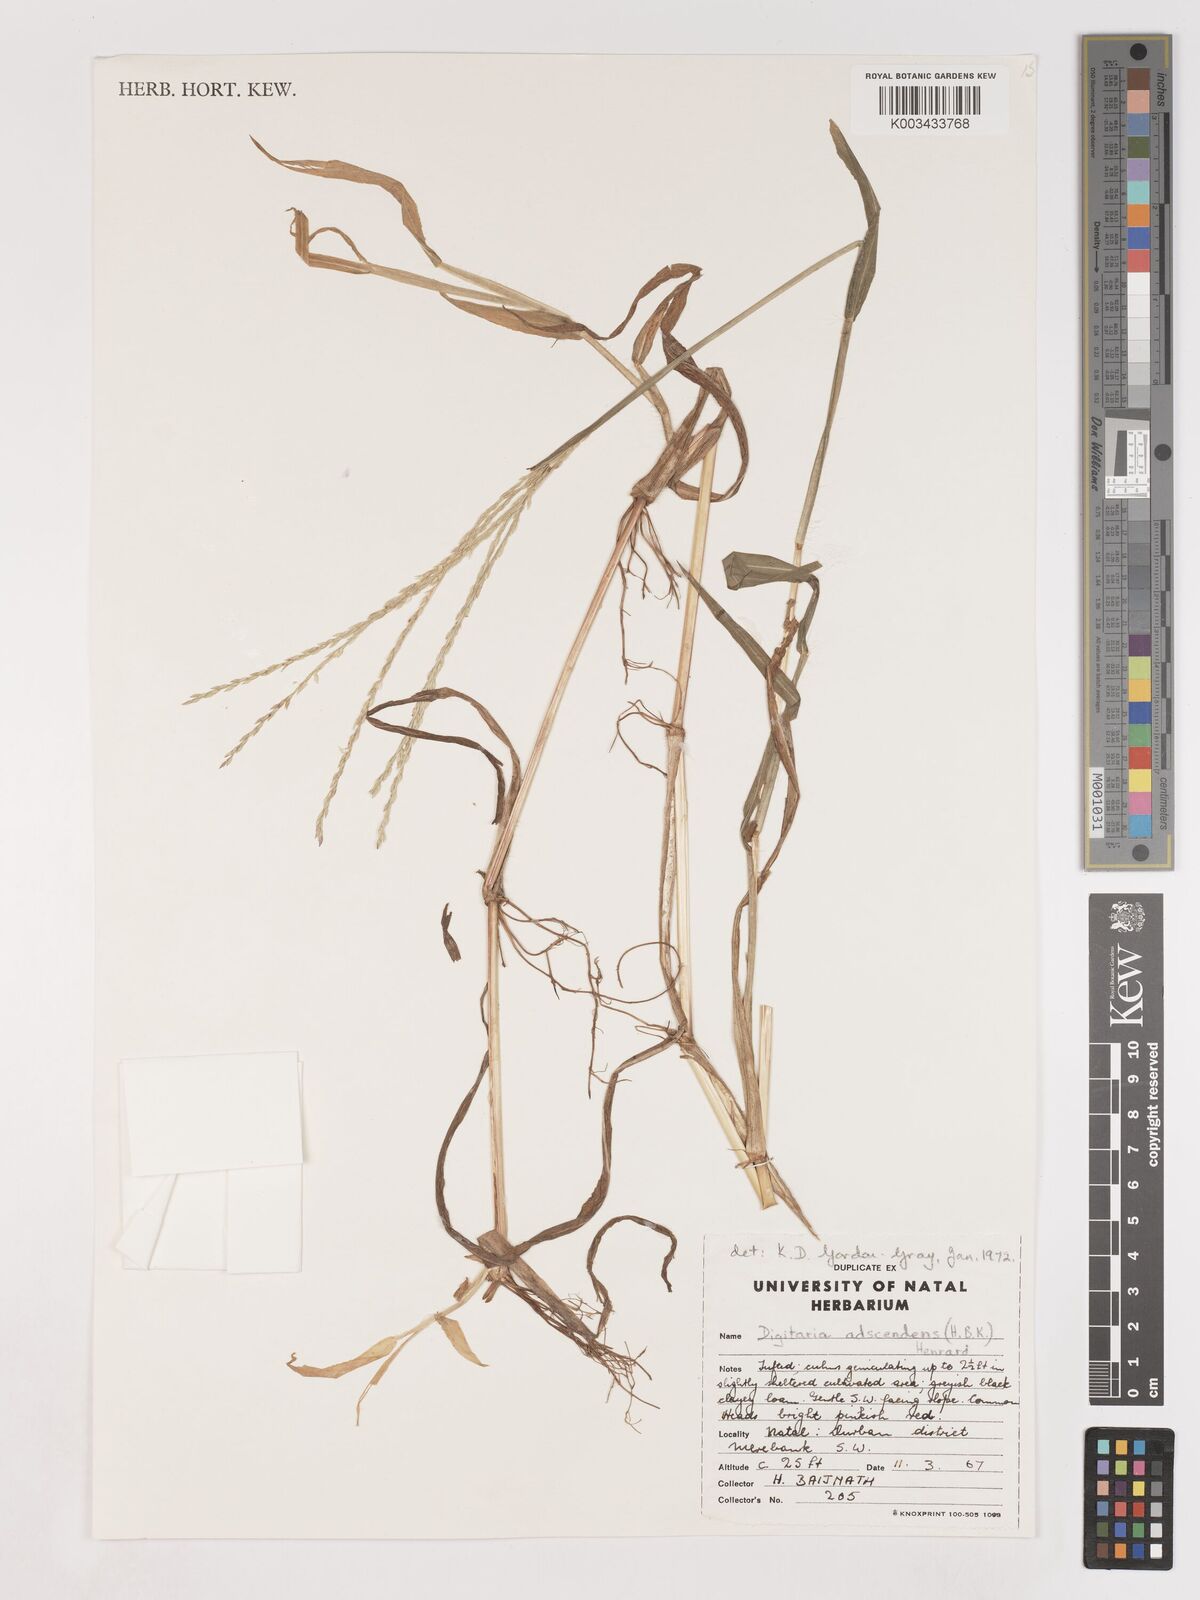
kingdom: Plantae
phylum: Tracheophyta
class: Liliopsida
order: Poales
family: Poaceae
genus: Digitaria
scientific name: Digitaria ciliaris
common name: Tropical finger-grass
